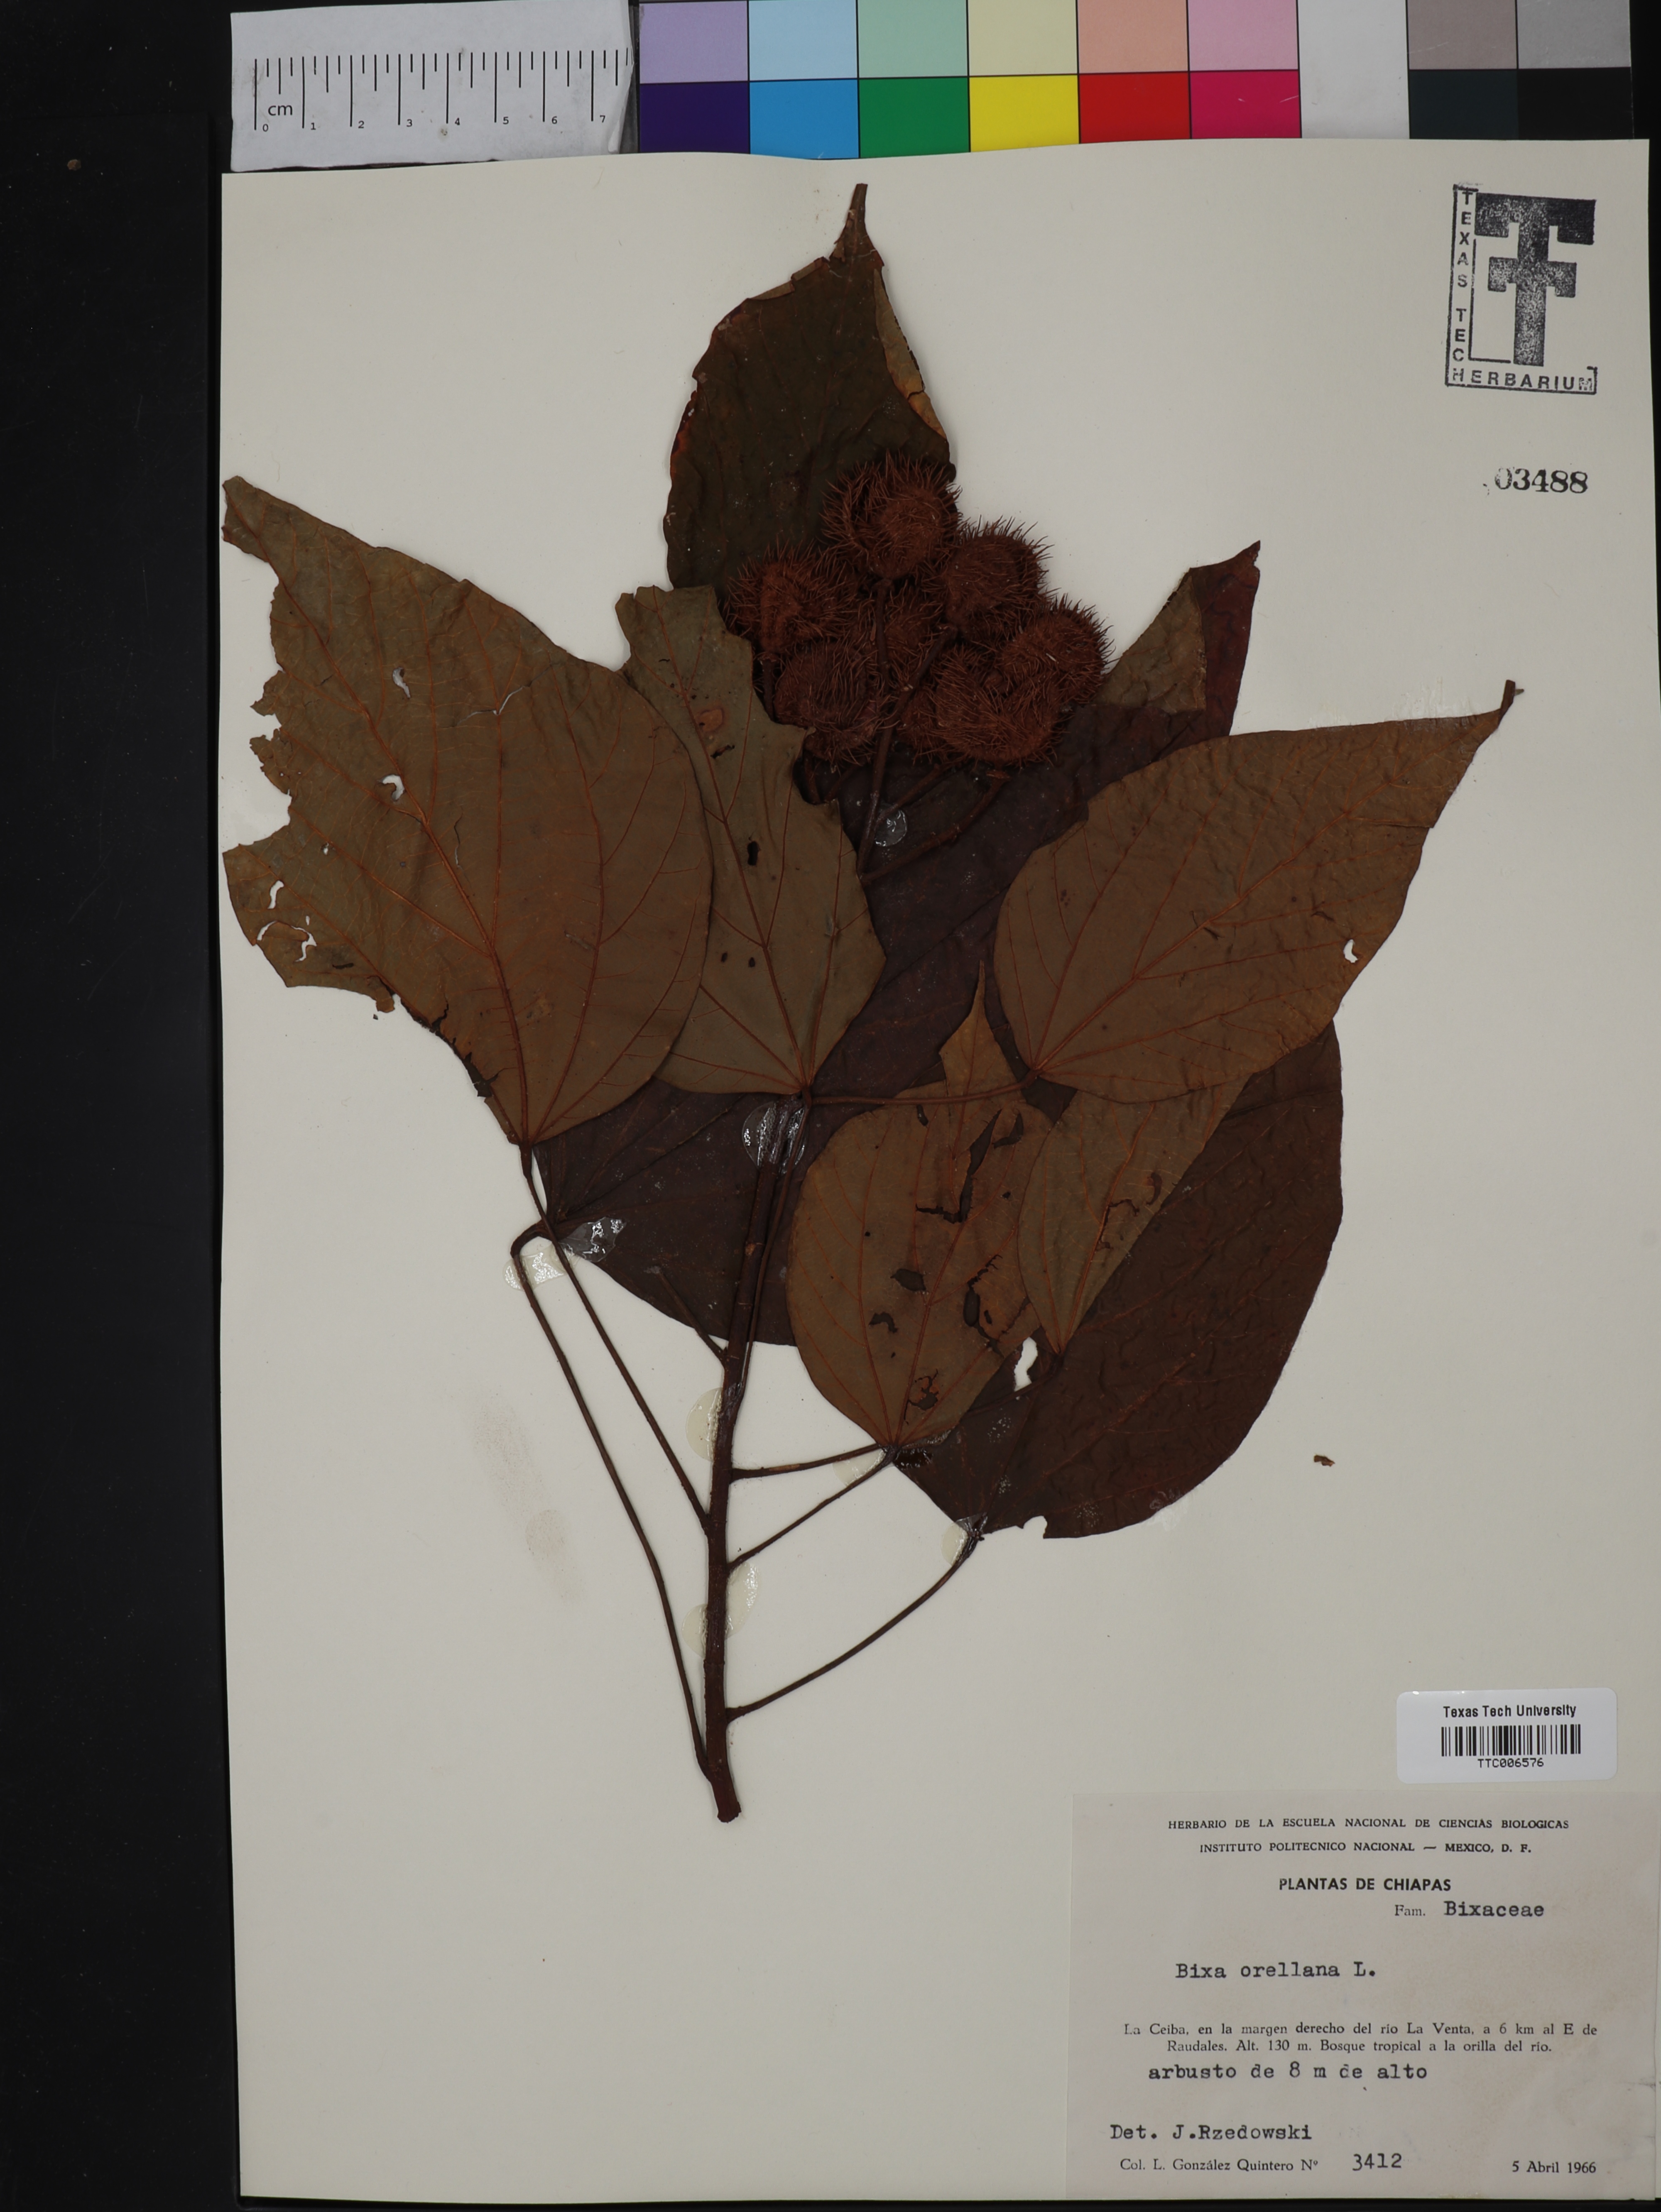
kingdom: Plantae
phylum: Tracheophyta
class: Magnoliopsida
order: Malvales
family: Bixaceae
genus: Bixa
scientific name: Bixa orellana
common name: Lipsticktree
